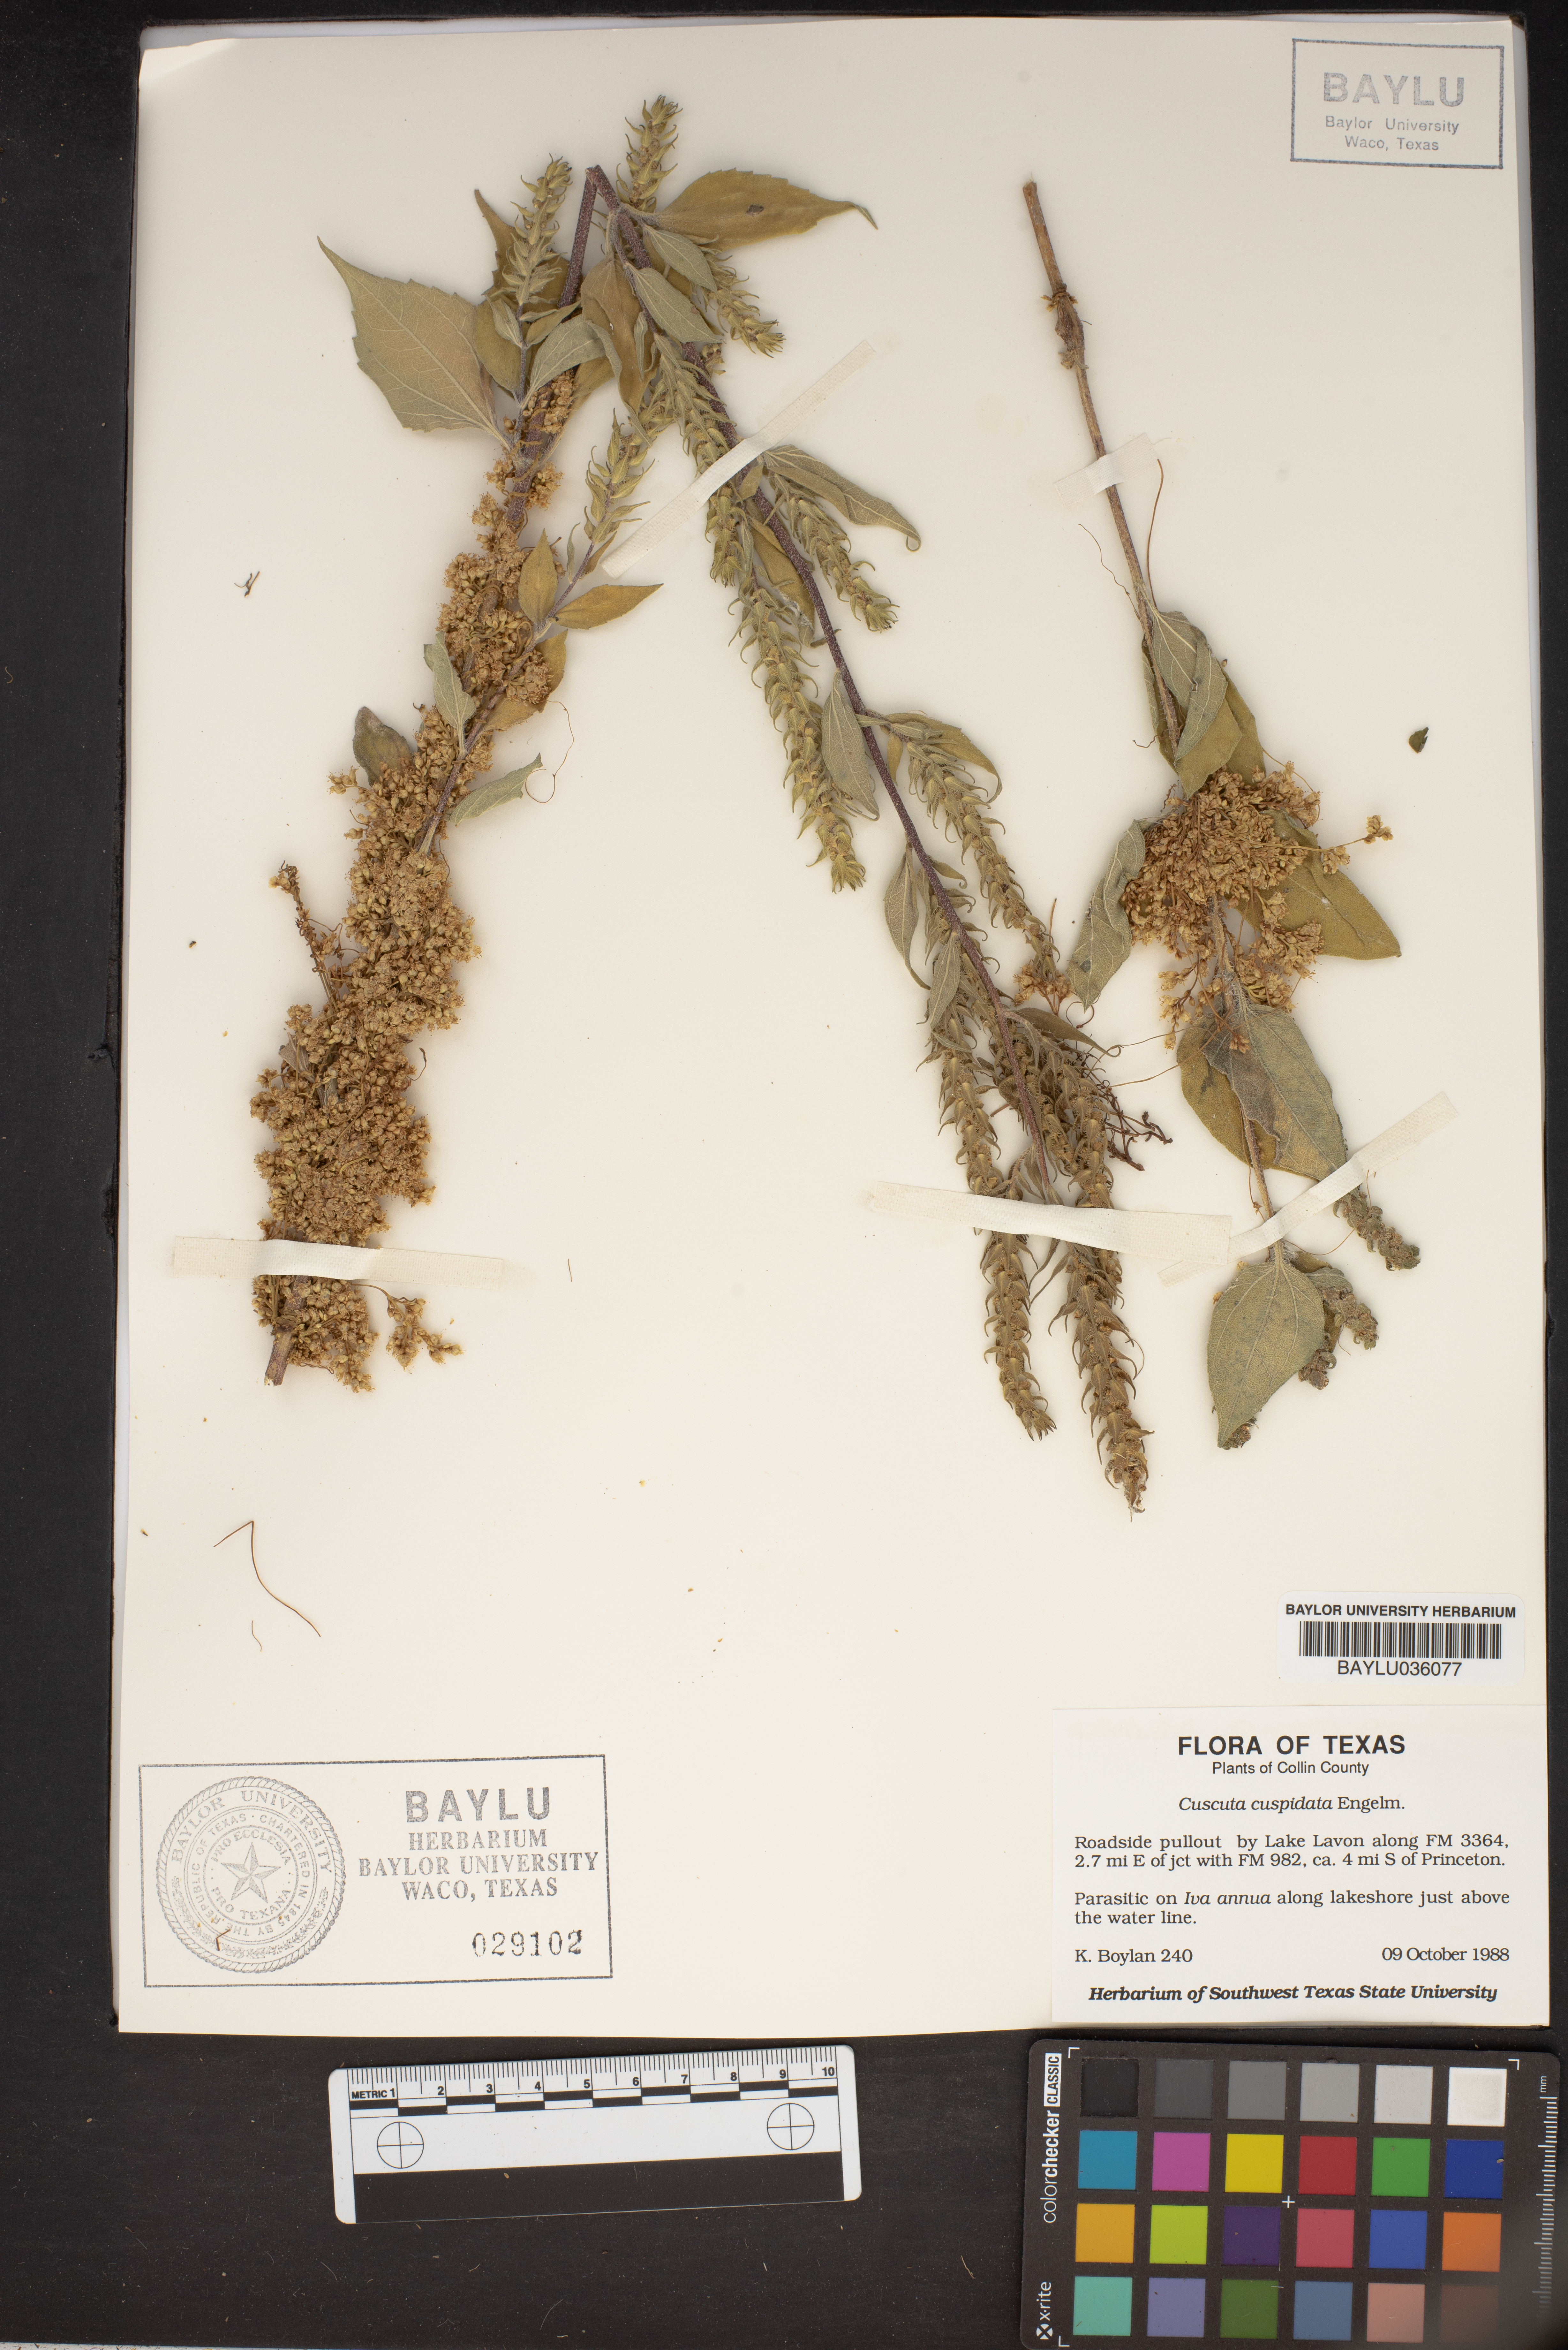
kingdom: Plantae
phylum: Tracheophyta
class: Magnoliopsida
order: Solanales
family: Convolvulaceae
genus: Cuscuta
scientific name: Cuscuta cuspidata
